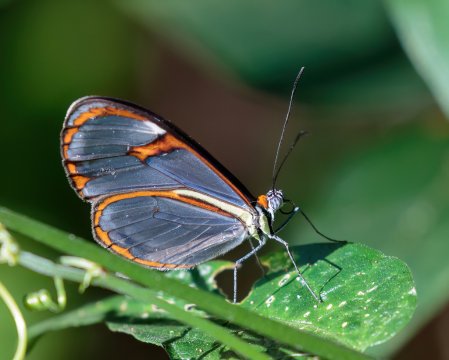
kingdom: Animalia
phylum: Arthropoda
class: Insecta
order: Lepidoptera
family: Nymphalidae
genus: Ithomia
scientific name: Ithomia agnosia
